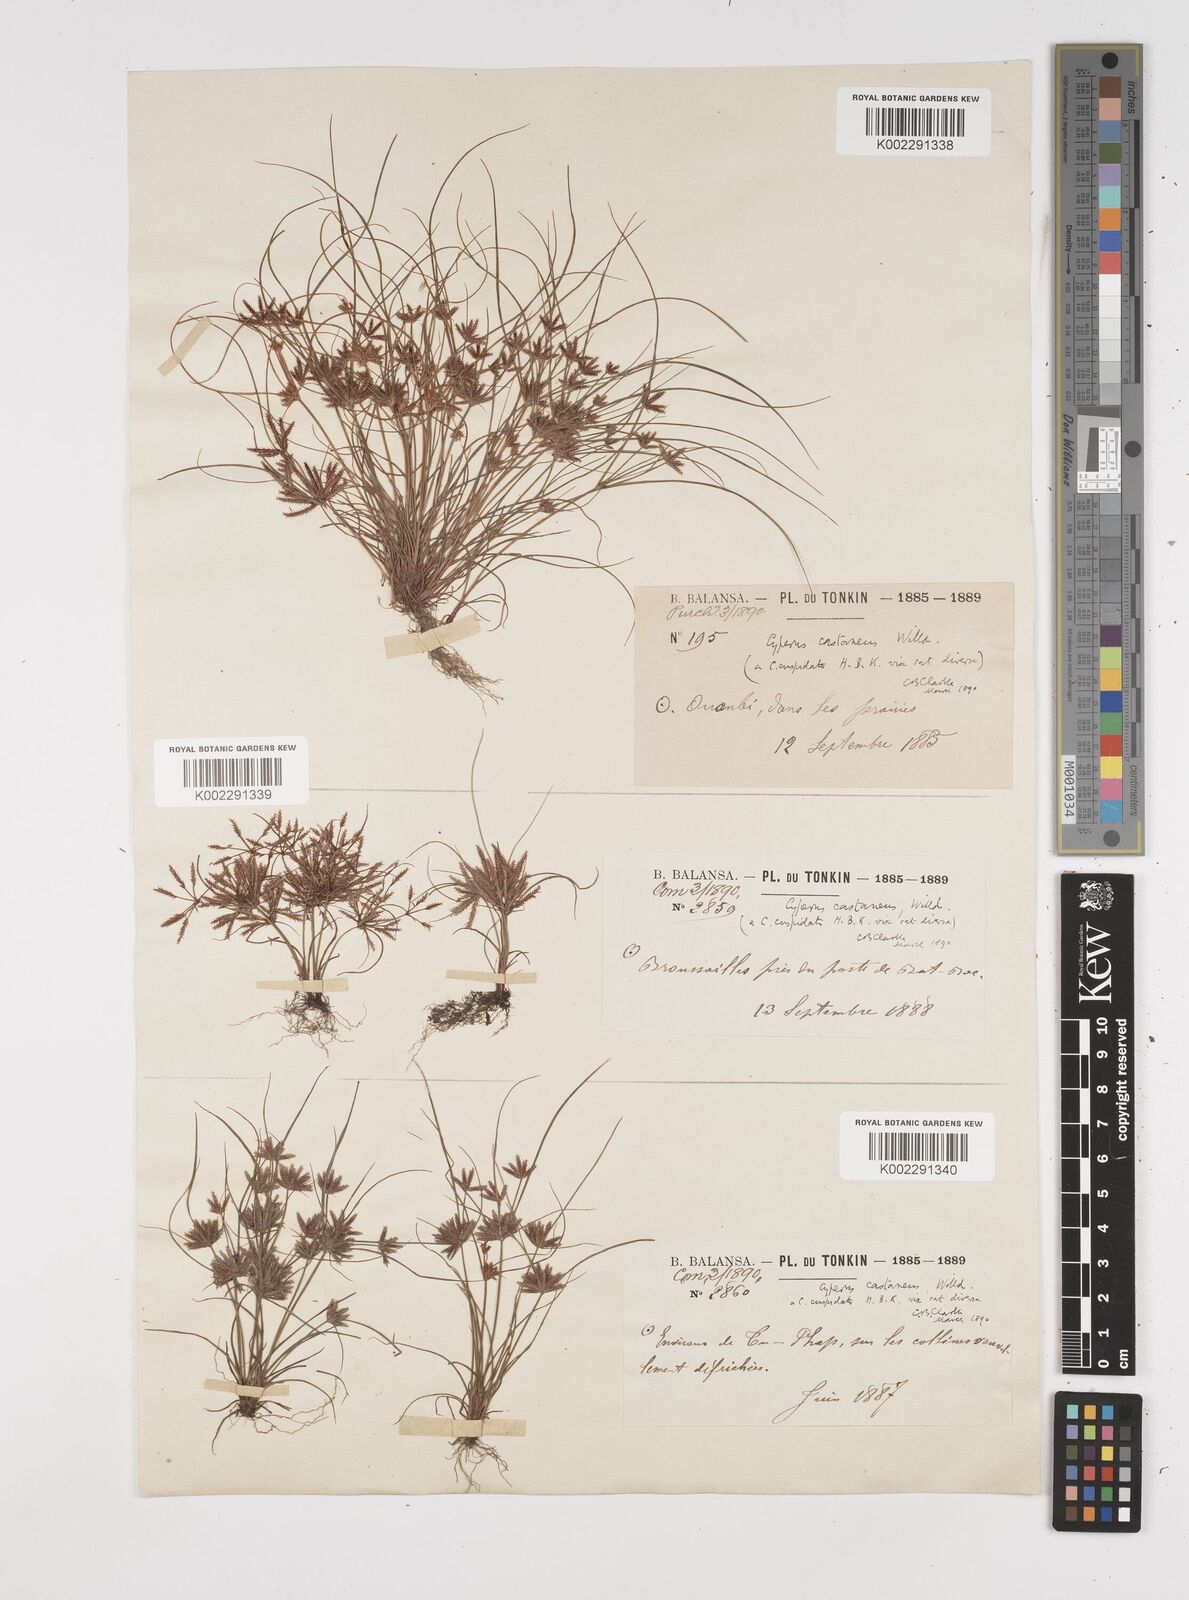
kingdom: Plantae
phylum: Tracheophyta
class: Liliopsida
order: Poales
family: Cyperaceae
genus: Cyperus
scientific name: Cyperus castaneus
